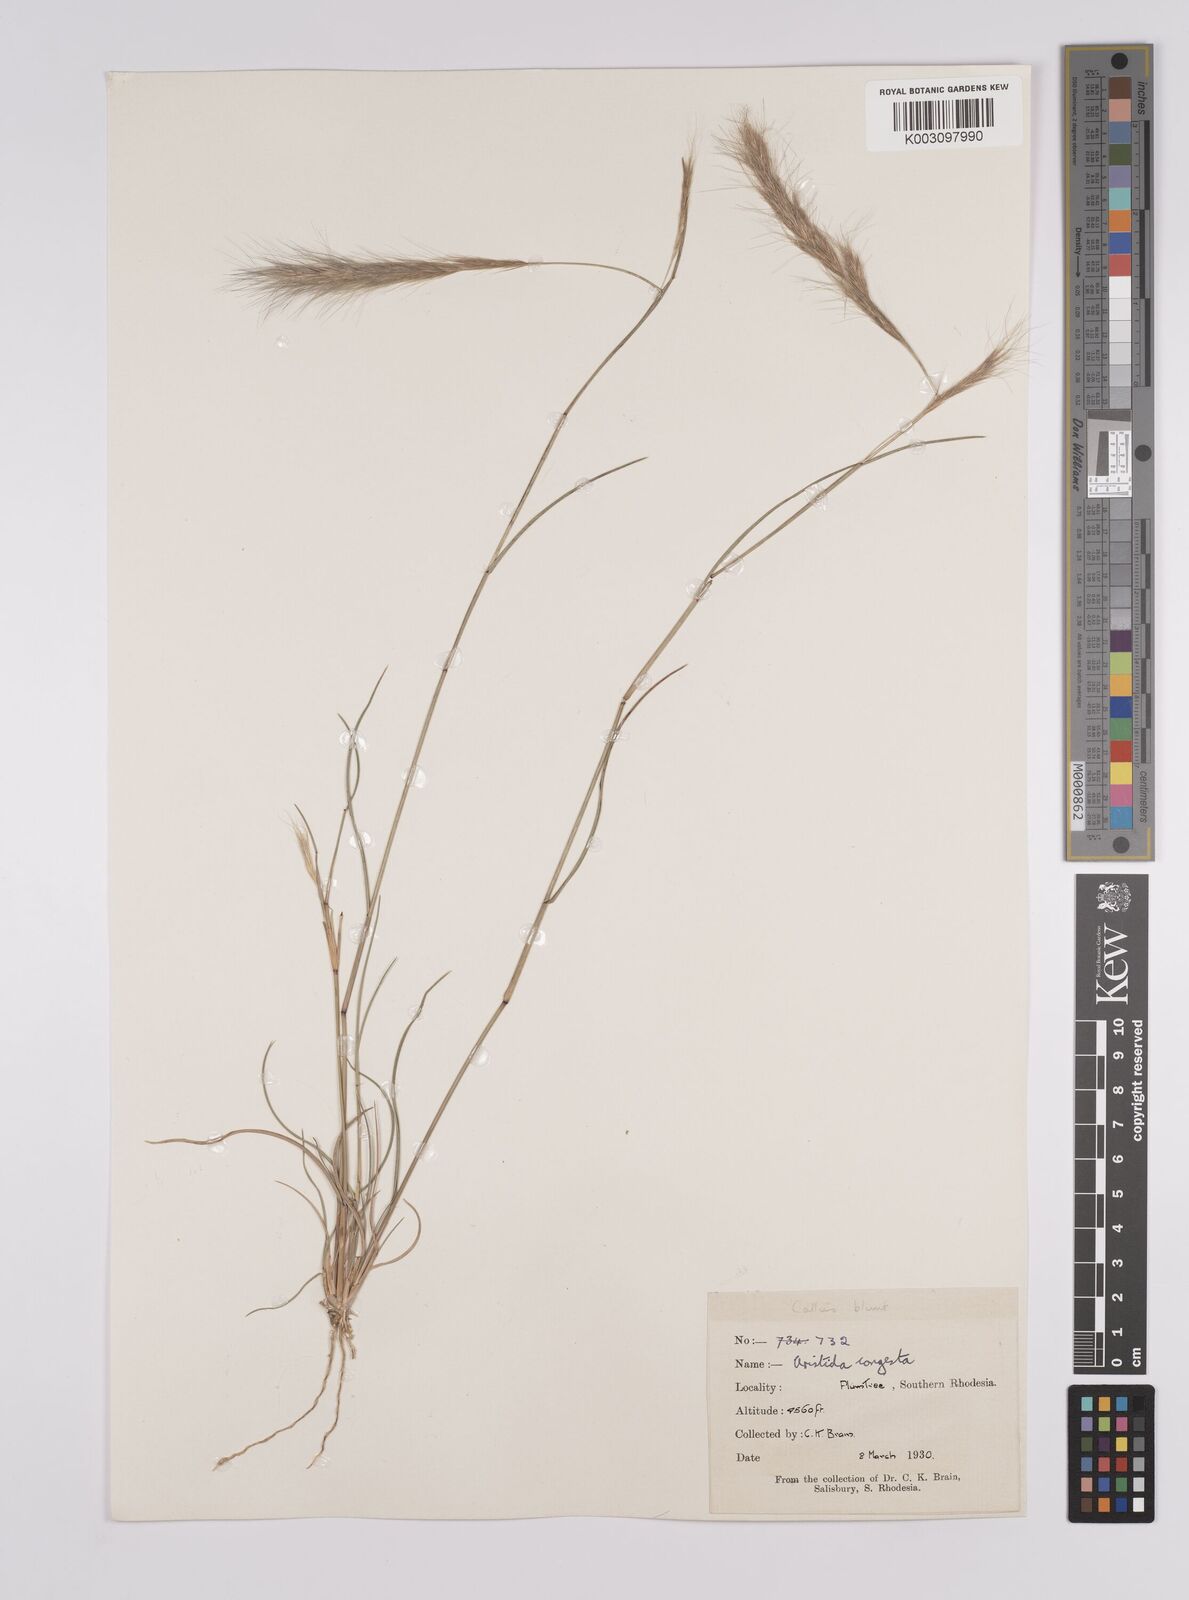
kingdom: Plantae
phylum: Tracheophyta
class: Liliopsida
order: Poales
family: Poaceae
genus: Aristida
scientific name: Aristida congesta
